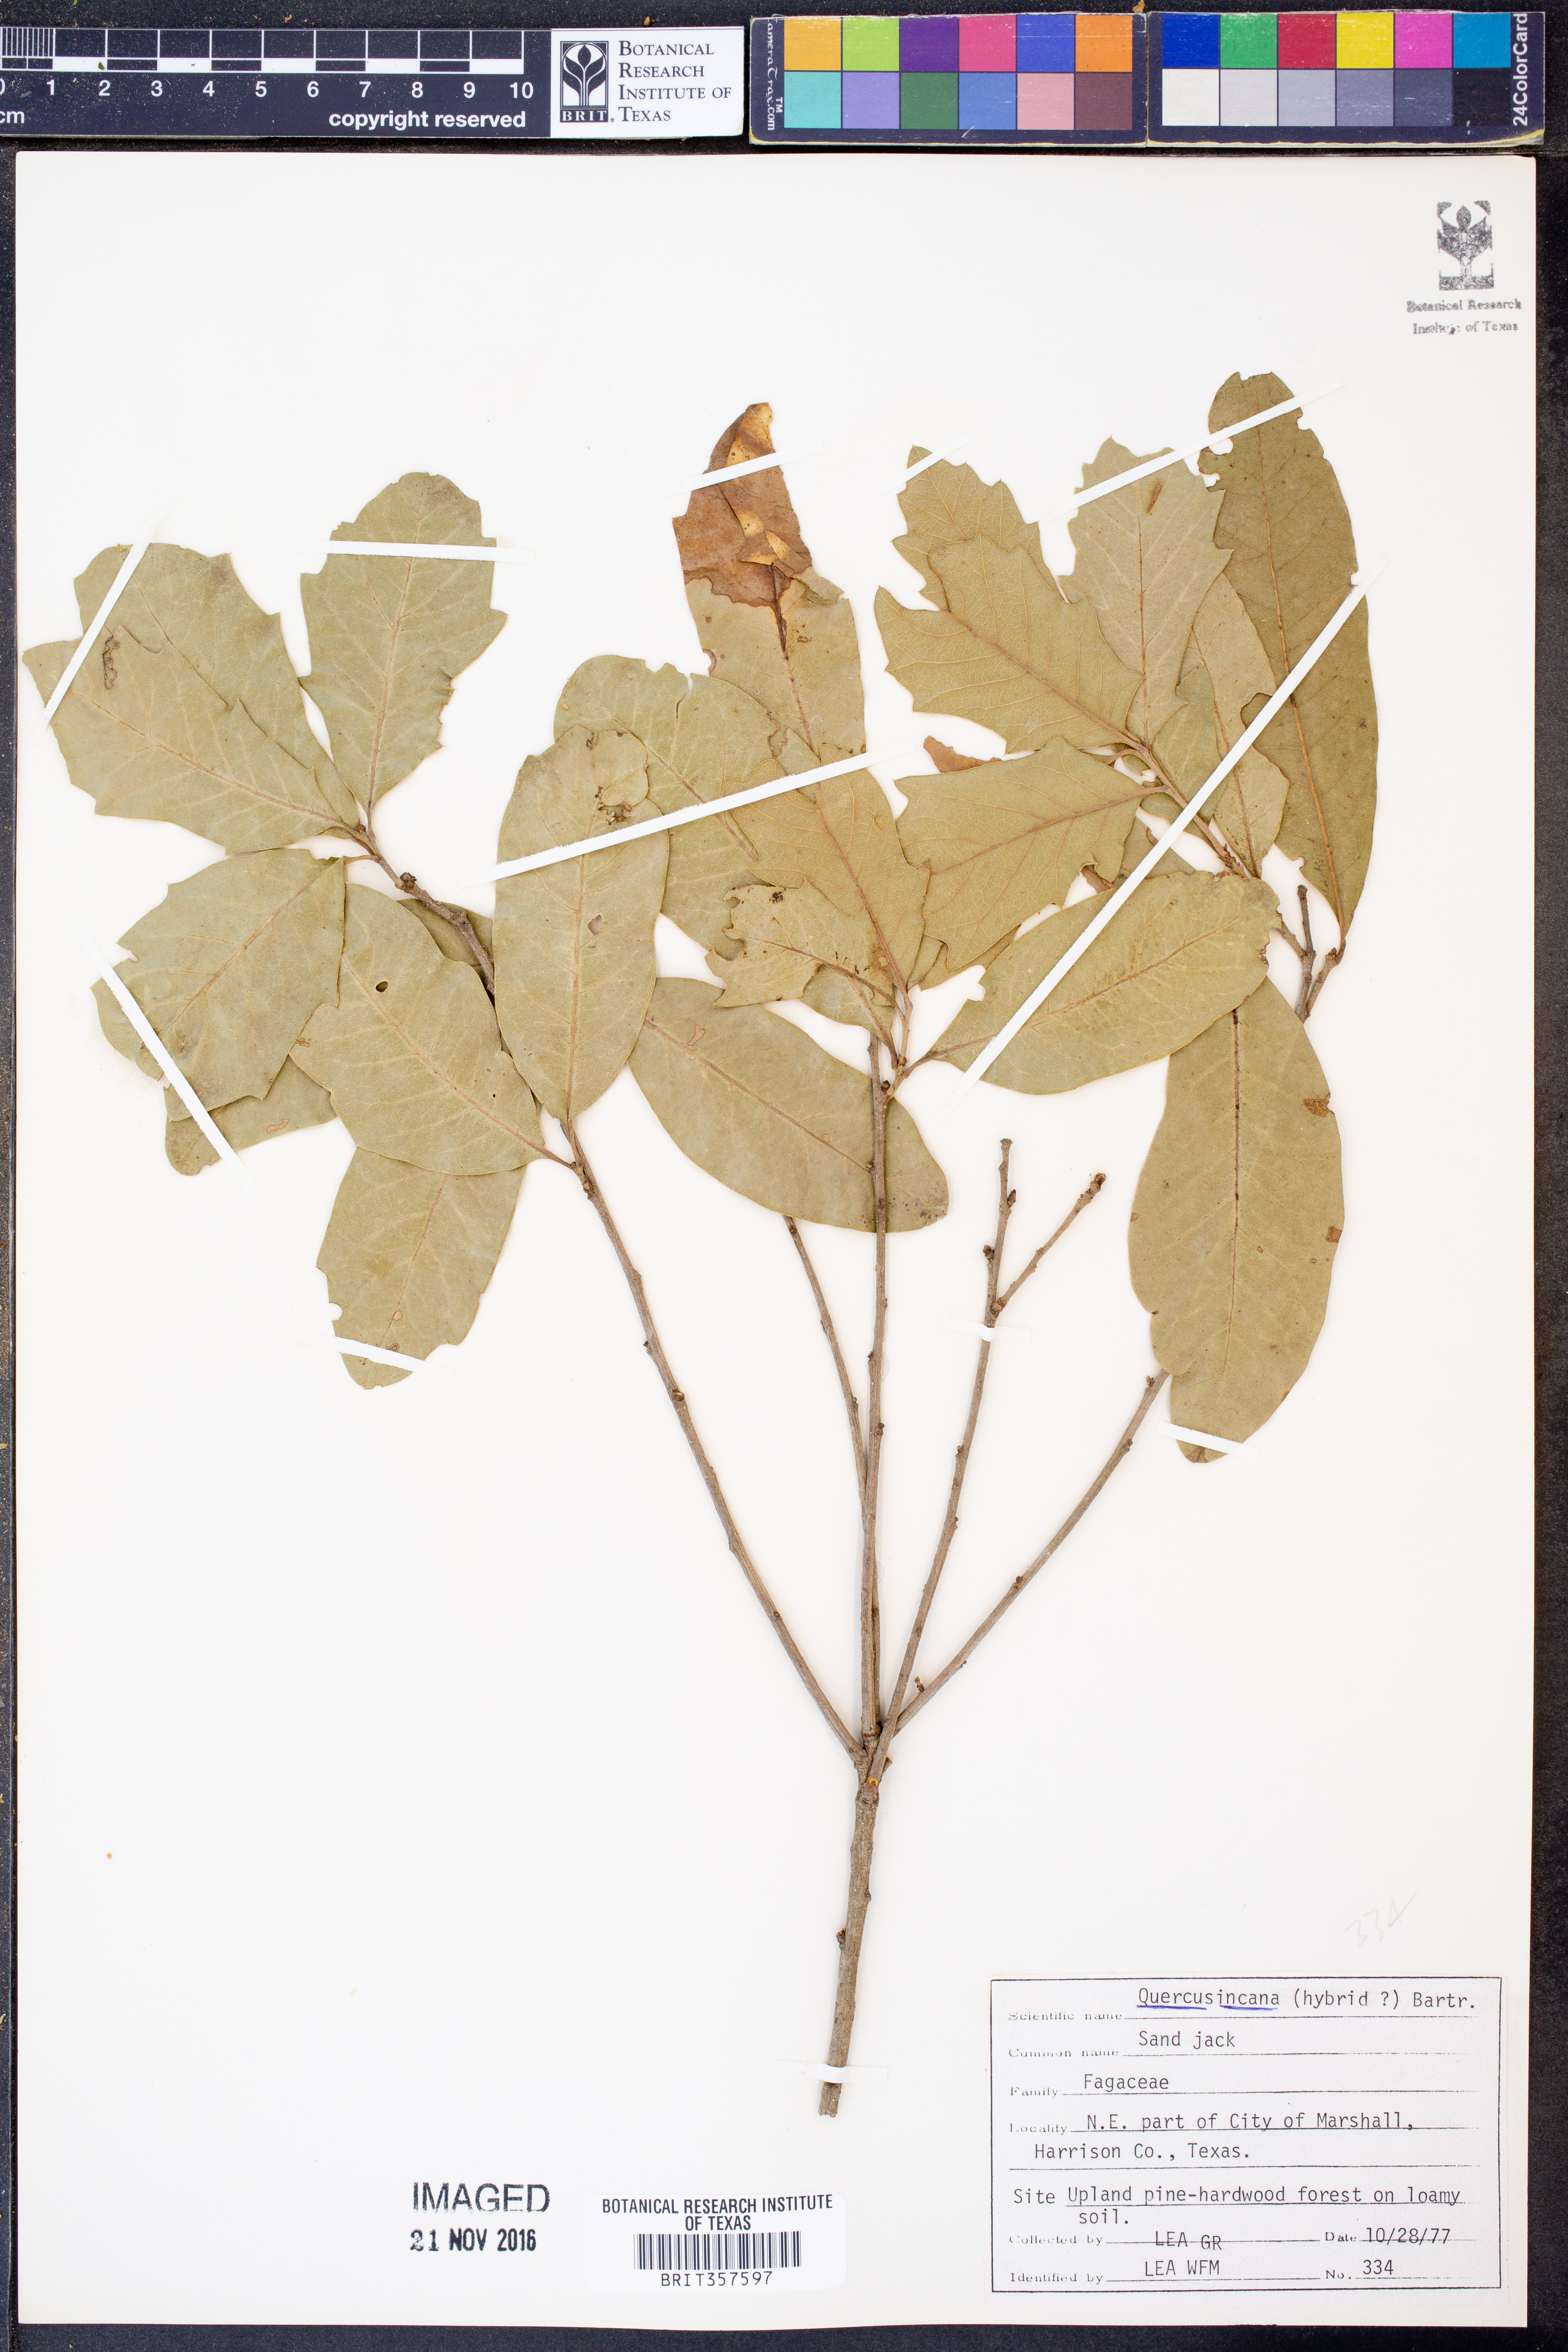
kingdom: Plantae
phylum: Tracheophyta
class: Magnoliopsida
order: Fagales
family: Fagaceae
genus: Quercus
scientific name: Quercus incana
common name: Bluejack oak
